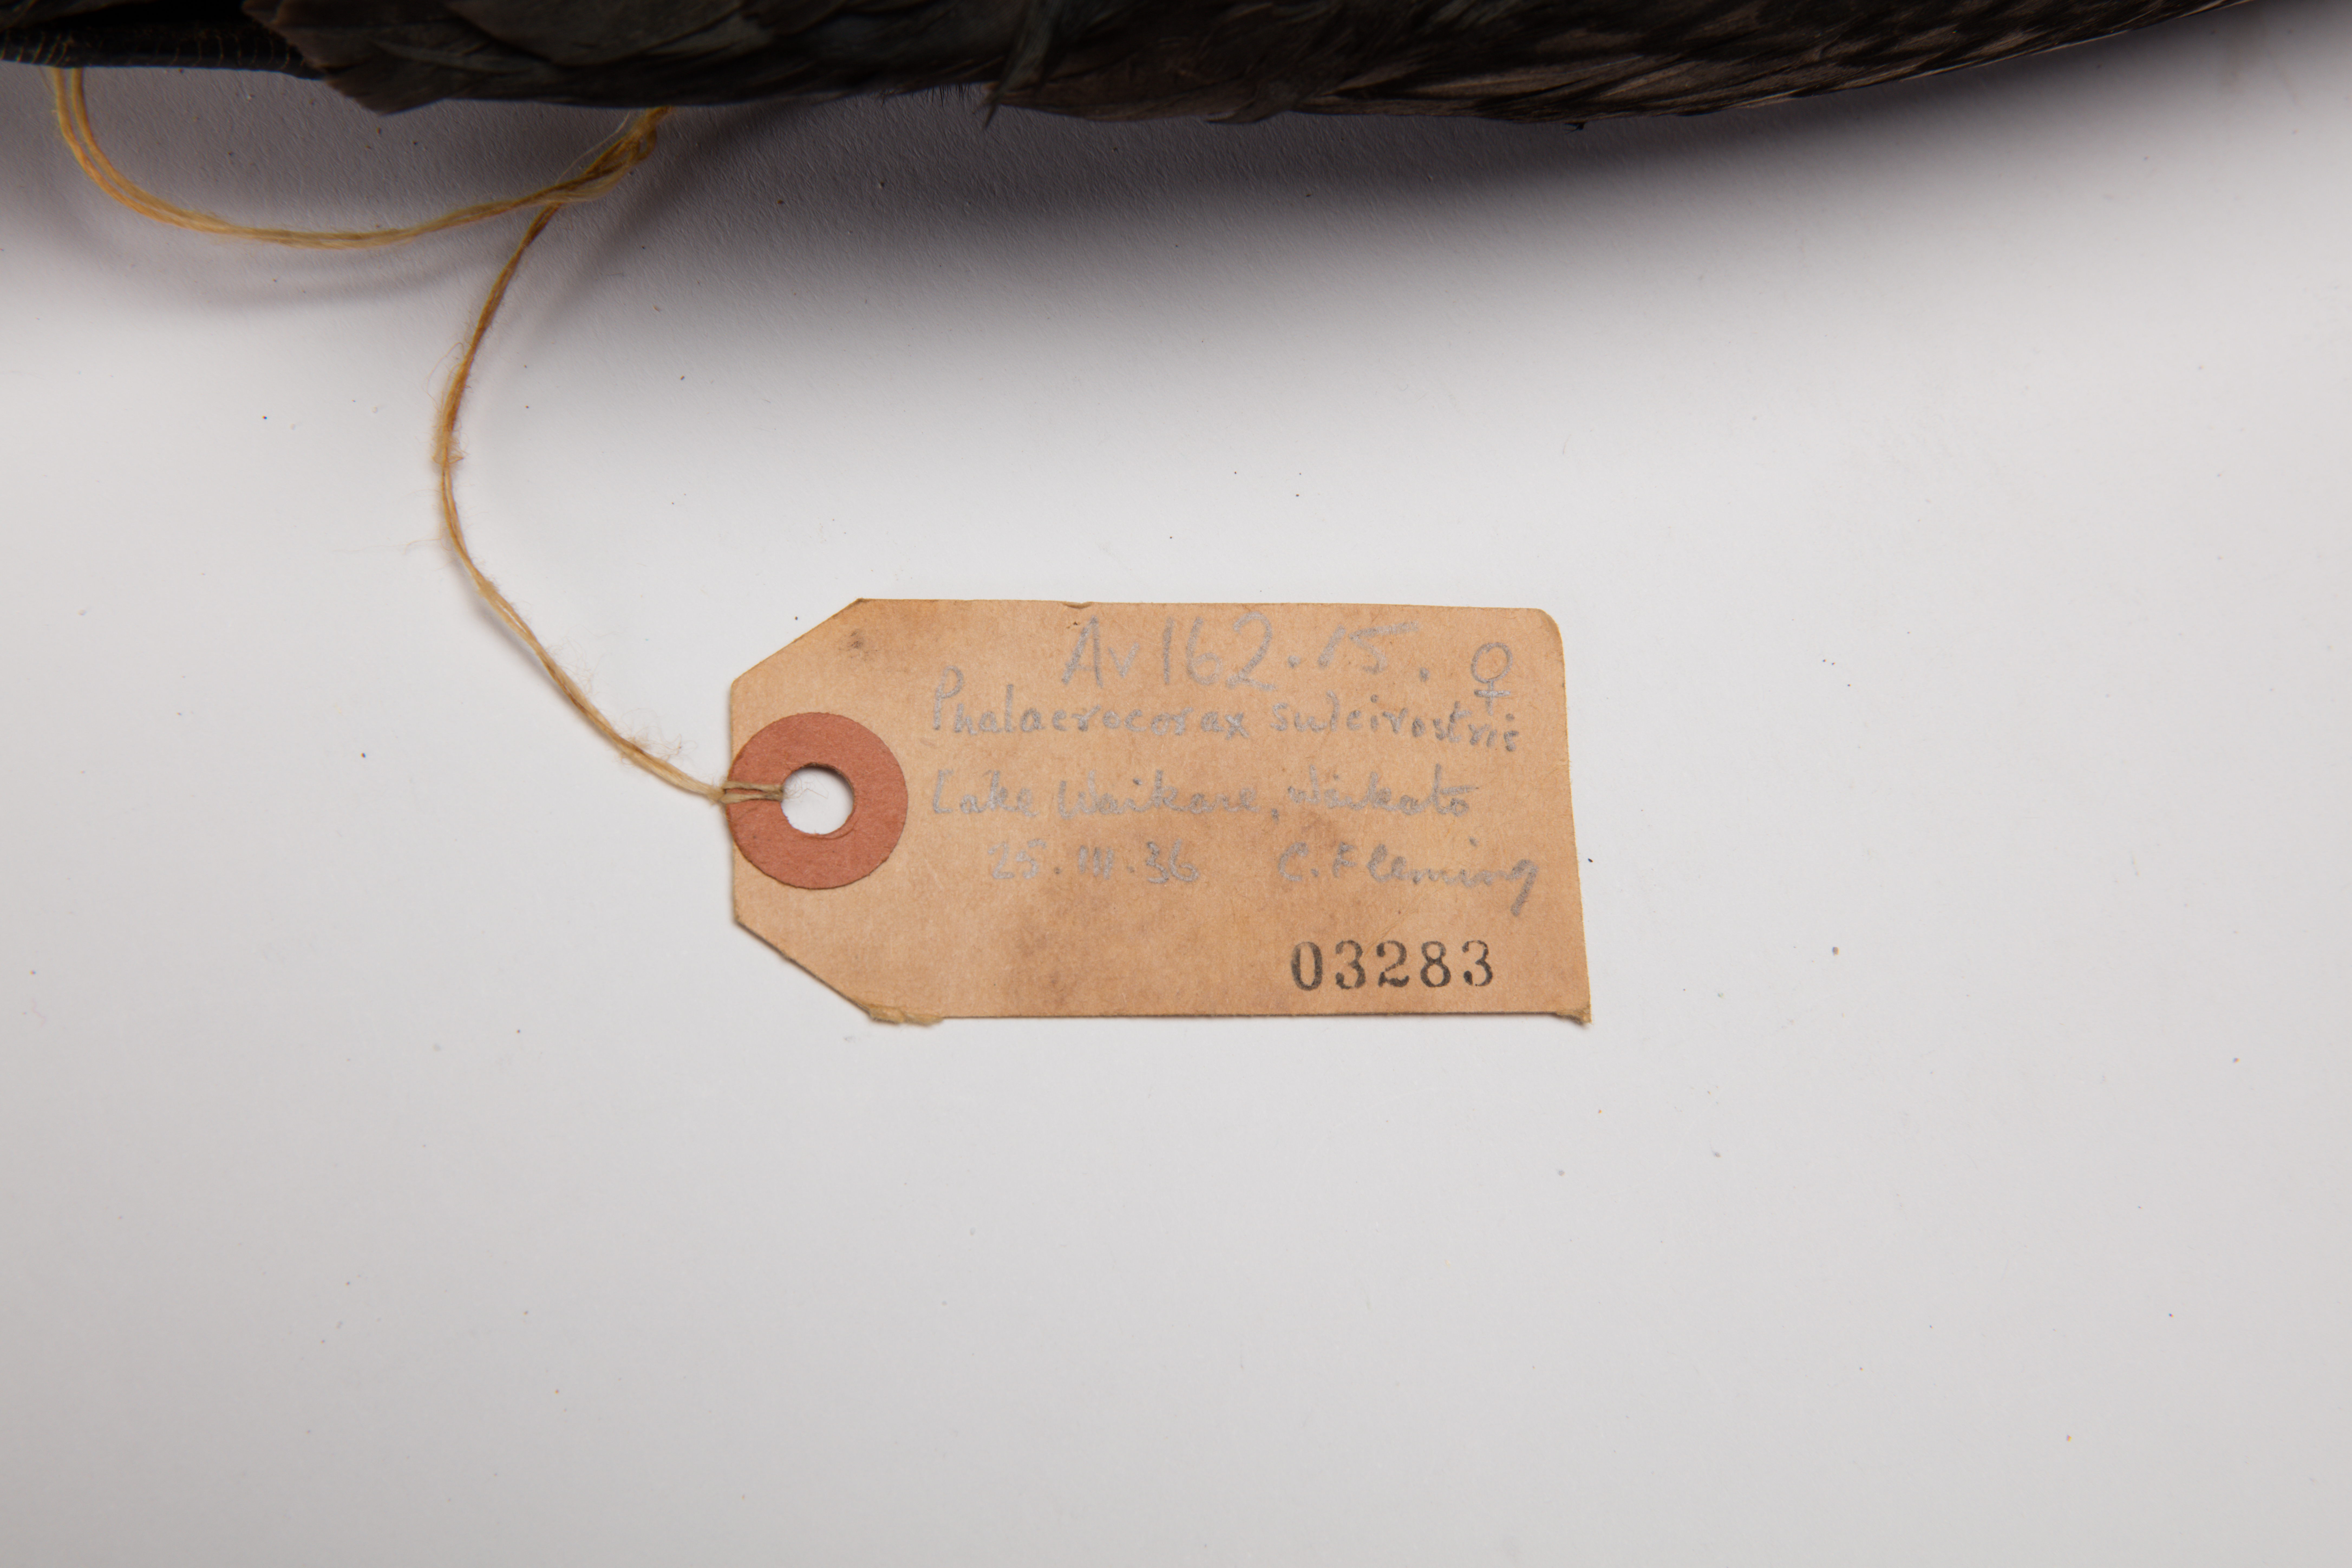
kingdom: Animalia
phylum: Chordata
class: Aves
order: Suliformes
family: Phalacrocoracidae
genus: Phalacrocorax
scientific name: Phalacrocorax sulcirostris
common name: Little black cormorant
